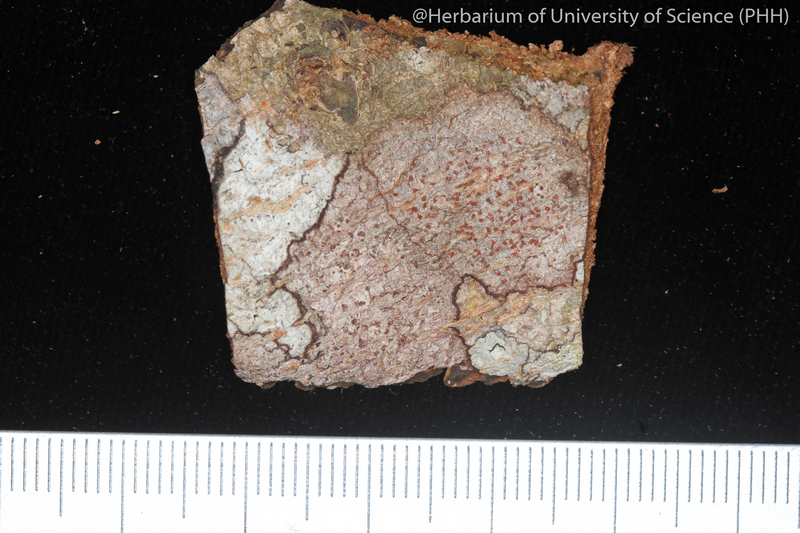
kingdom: Fungi
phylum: Ascomycota
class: Arthoniomycetes
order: Arthoniales
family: Arthoniaceae
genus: Arthonia
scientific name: Arthonia
